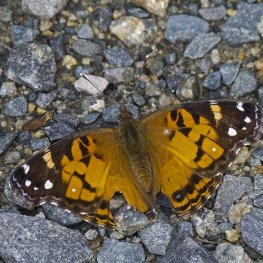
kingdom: Animalia
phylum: Arthropoda
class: Insecta
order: Lepidoptera
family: Nymphalidae
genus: Vanessa
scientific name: Vanessa virginiensis
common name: American Lady
